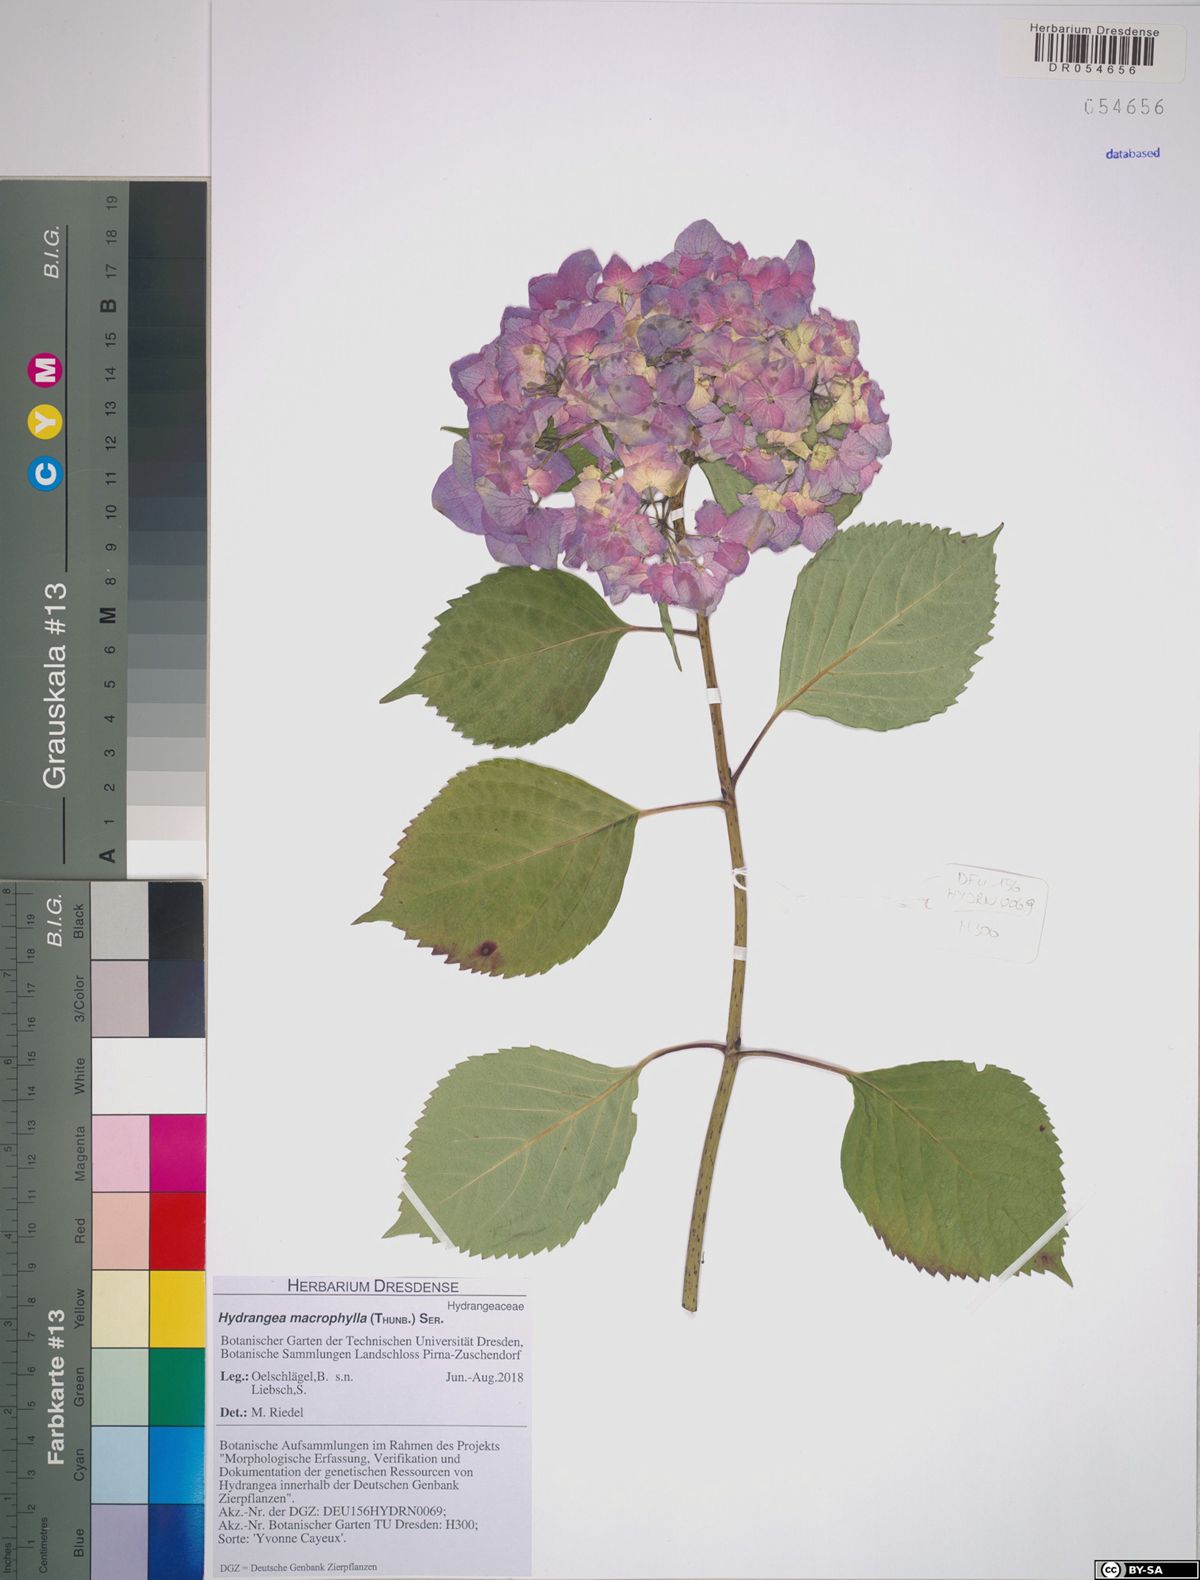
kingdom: Plantae
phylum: Tracheophyta
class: Magnoliopsida
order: Cornales
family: Hydrangeaceae
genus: Hydrangea
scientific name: Hydrangea macrophylla
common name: Hydrangea
